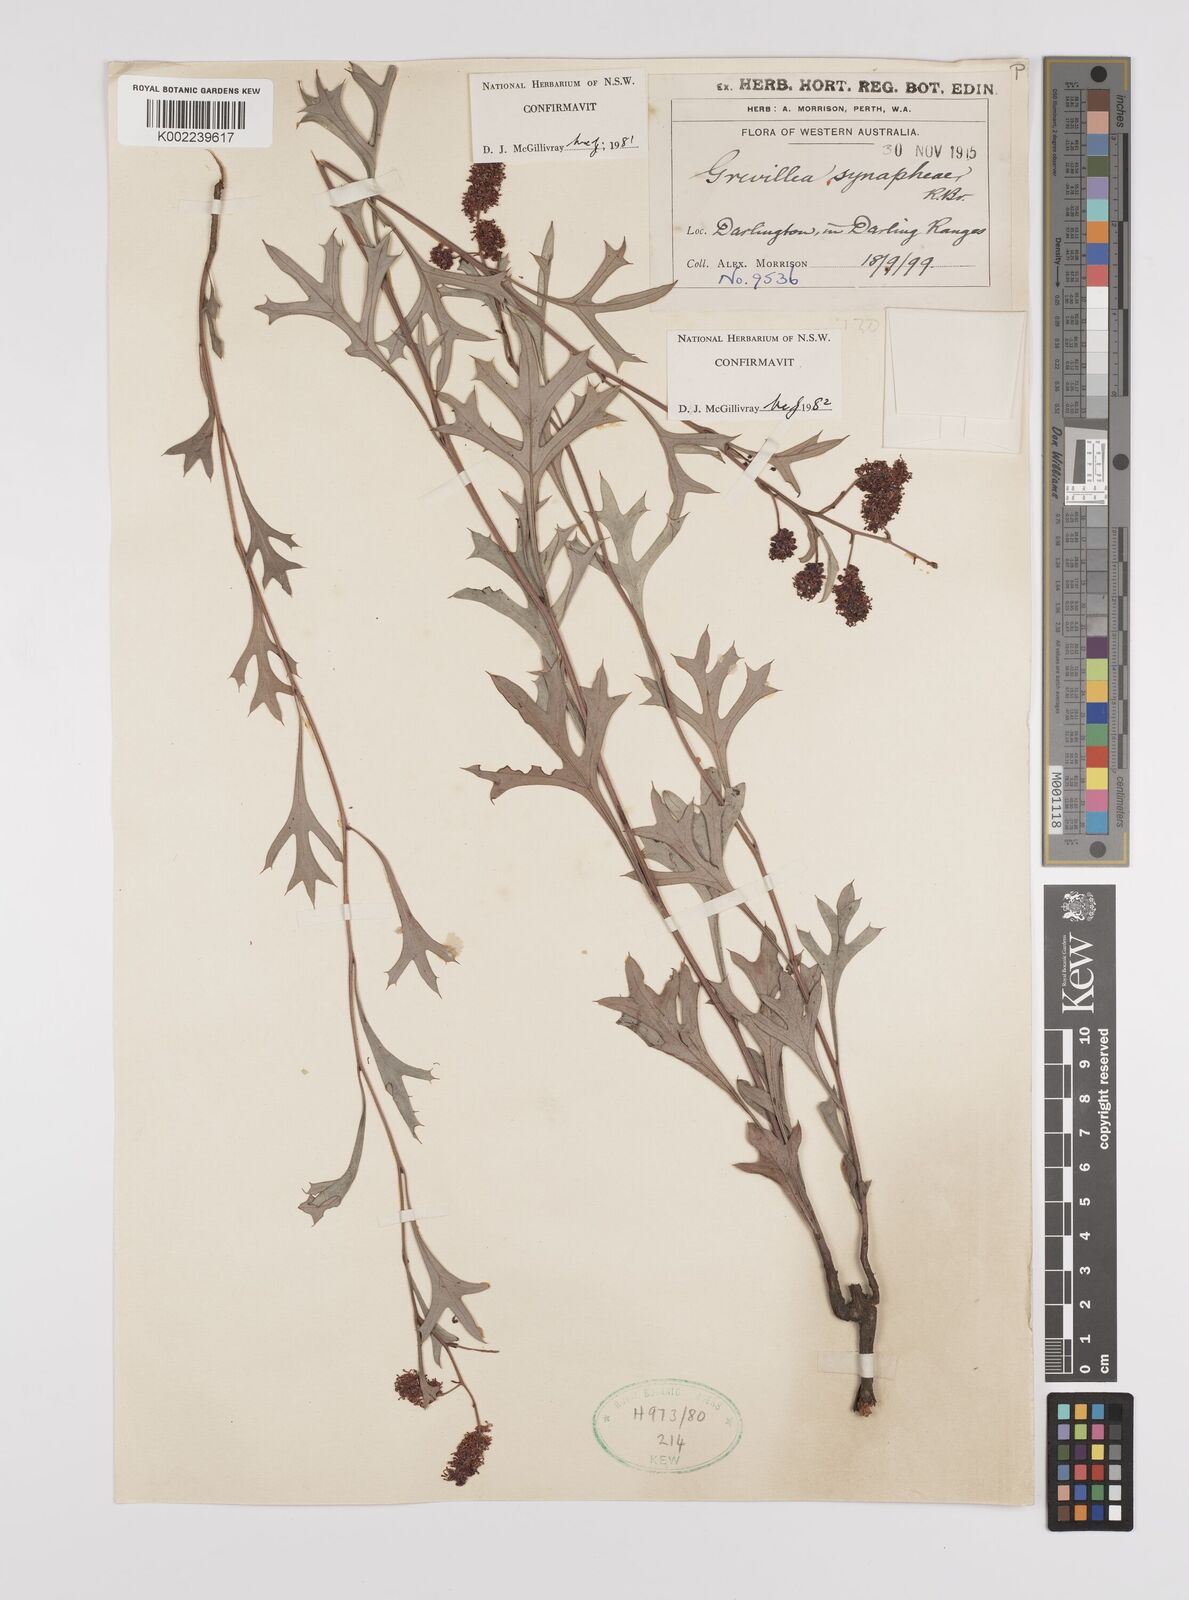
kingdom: Plantae
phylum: Tracheophyta
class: Magnoliopsida
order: Proteales
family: Proteaceae
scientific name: Proteaceae
